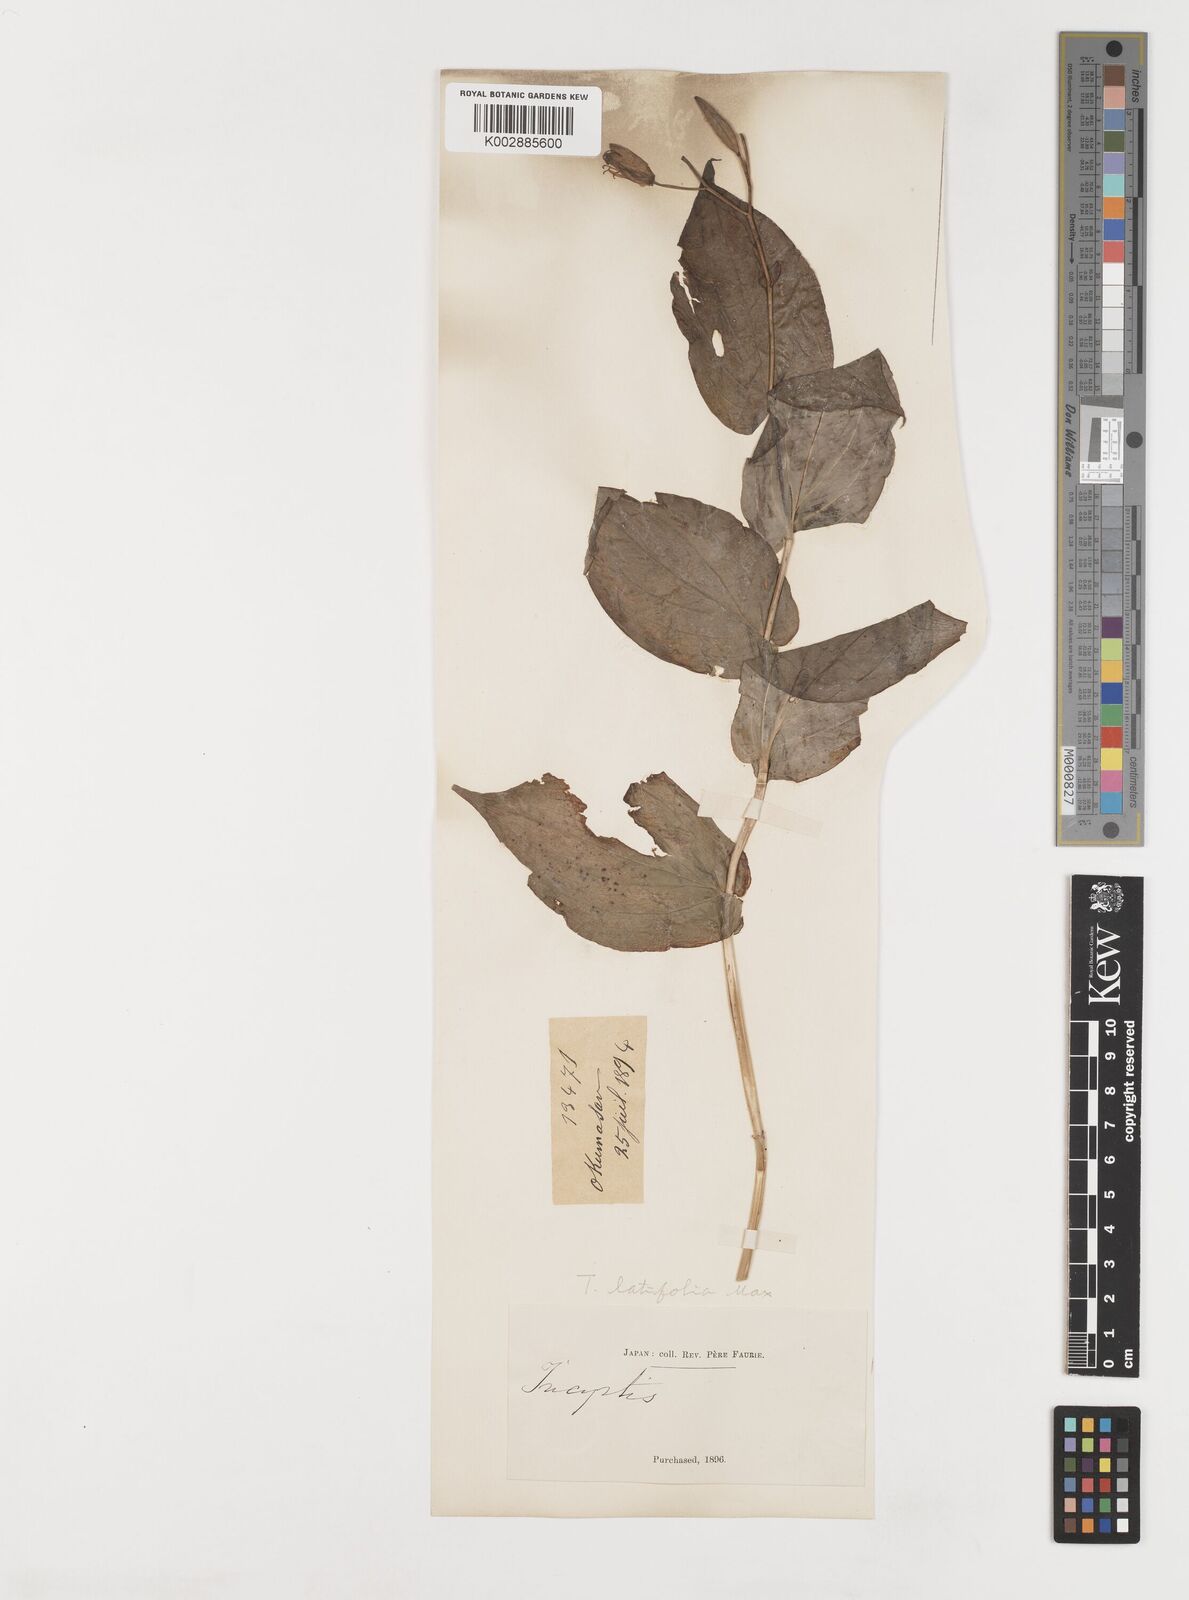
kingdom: Plantae
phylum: Tracheophyta
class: Liliopsida
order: Liliales
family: Liliaceae
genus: Tricyrtis
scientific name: Tricyrtis latifolia
